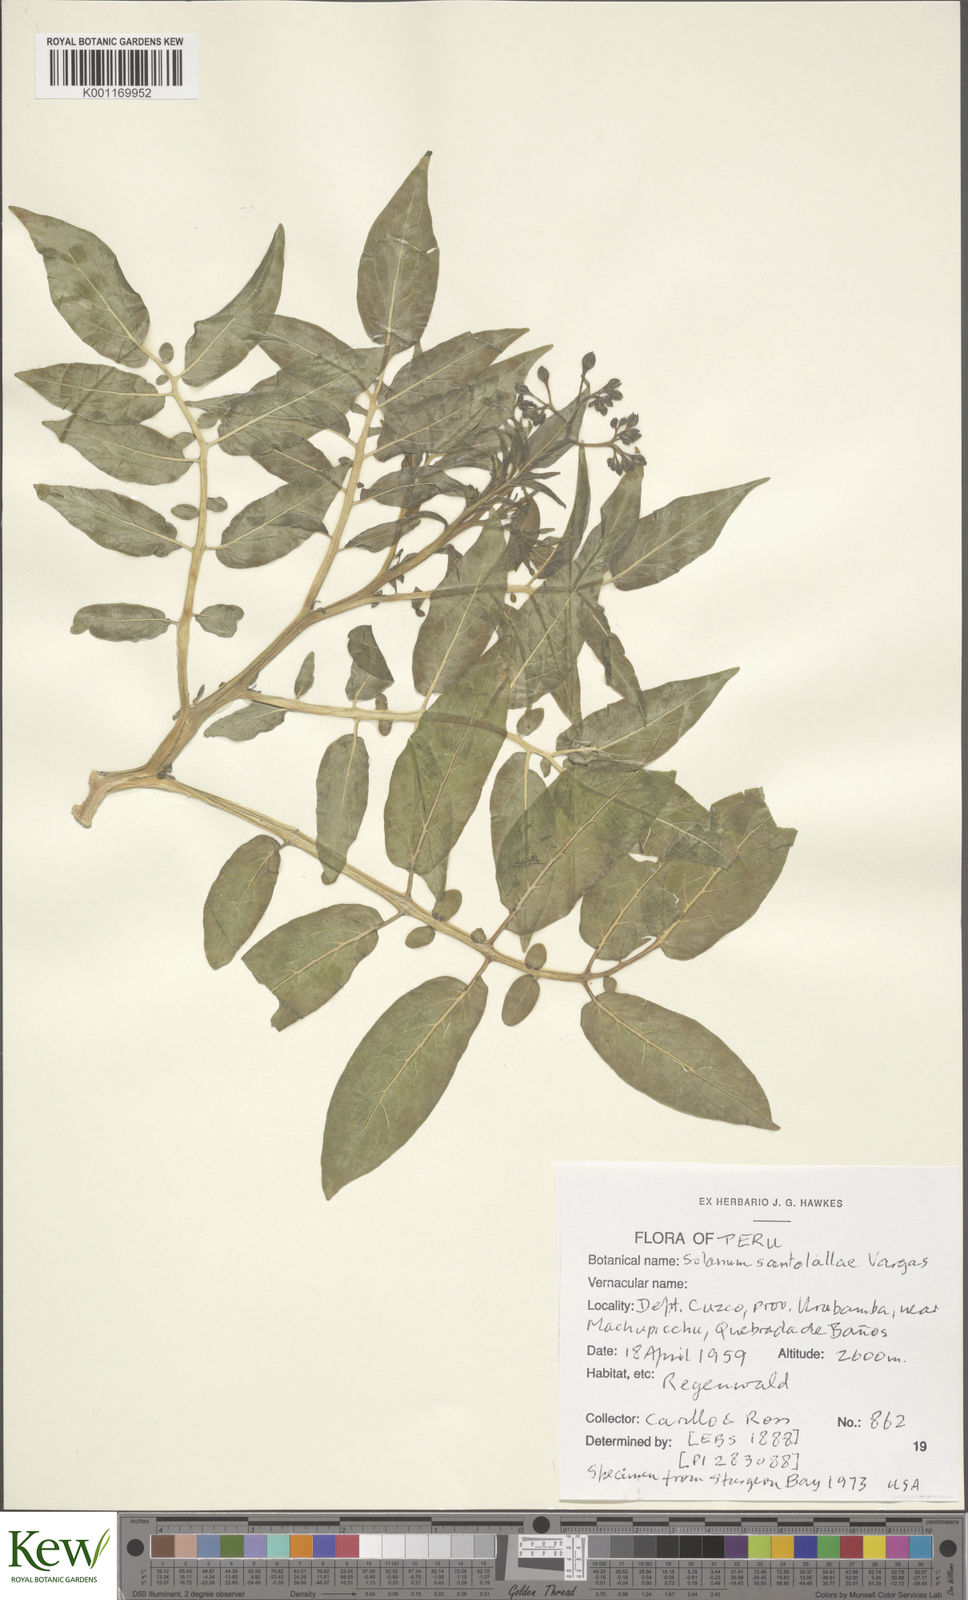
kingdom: Plantae
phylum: Tracheophyta
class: Magnoliopsida
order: Solanales
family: Solanaceae
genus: Solanum
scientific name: Solanum laxissimum
